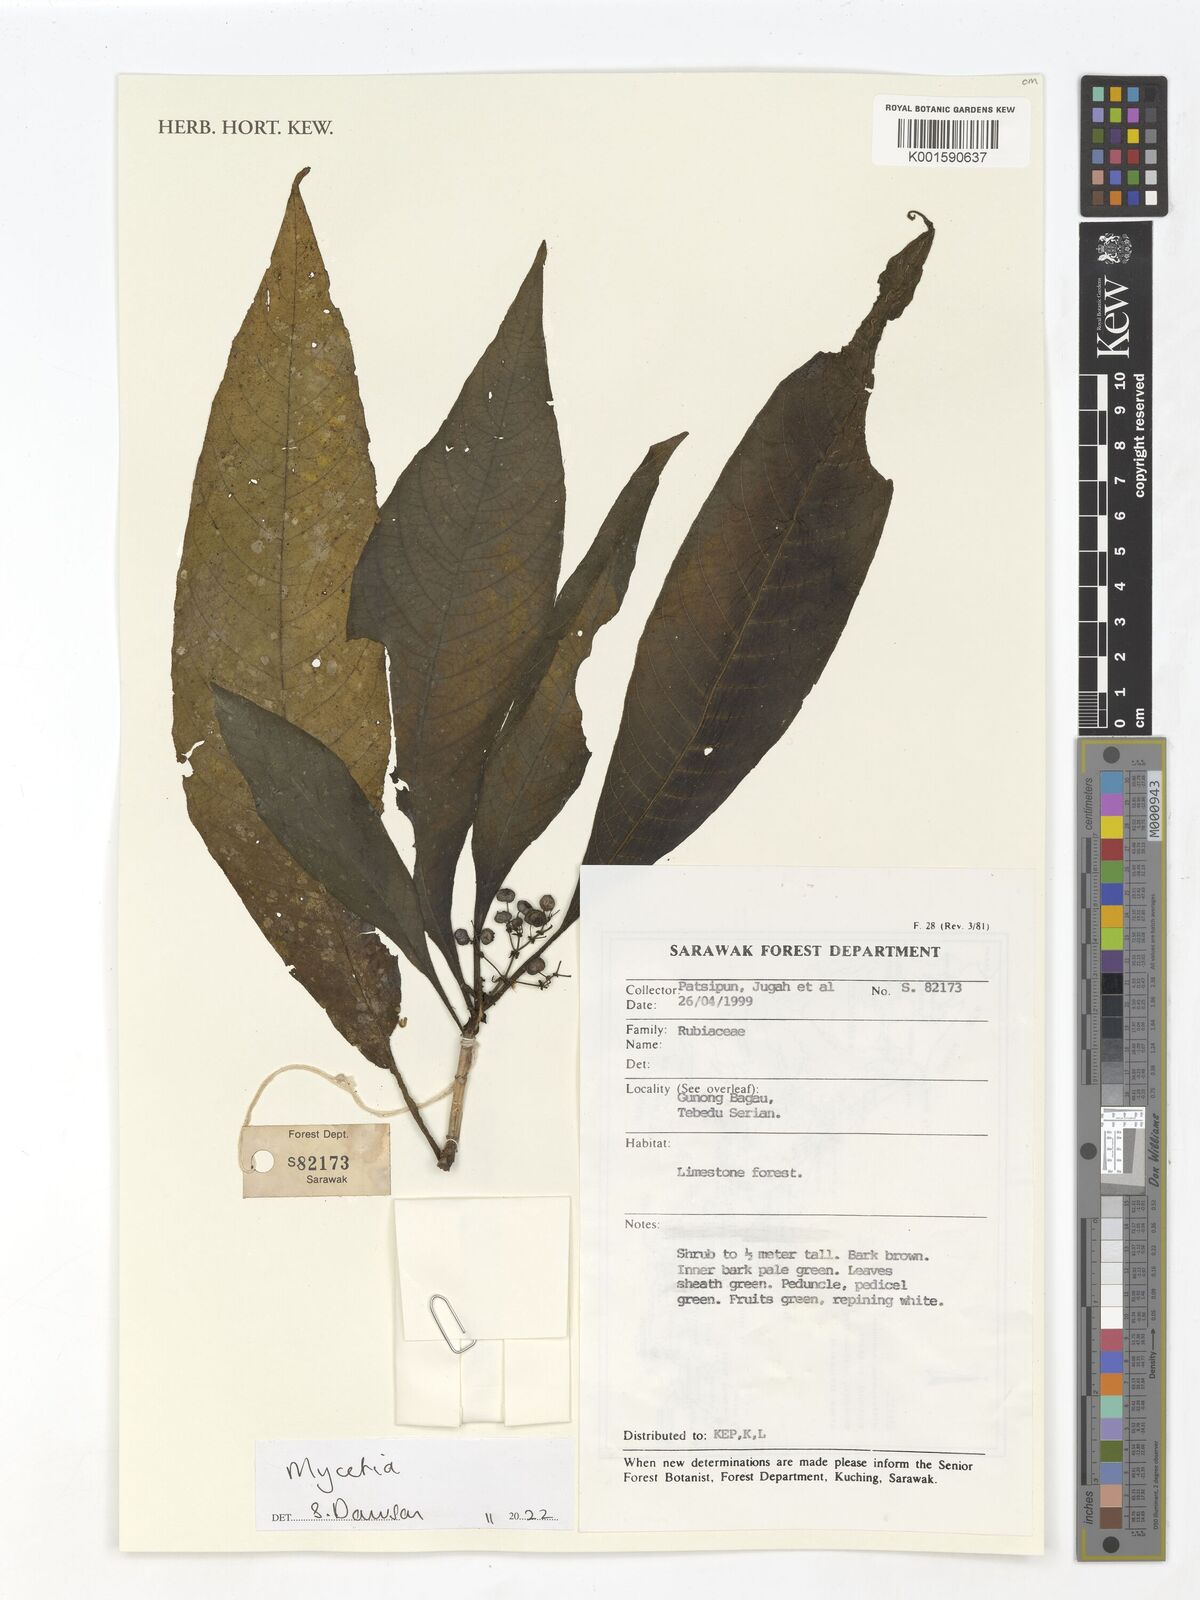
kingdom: Plantae
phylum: Tracheophyta
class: Magnoliopsida
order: Gentianales
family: Rubiaceae
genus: Mycetia
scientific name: Mycetia
